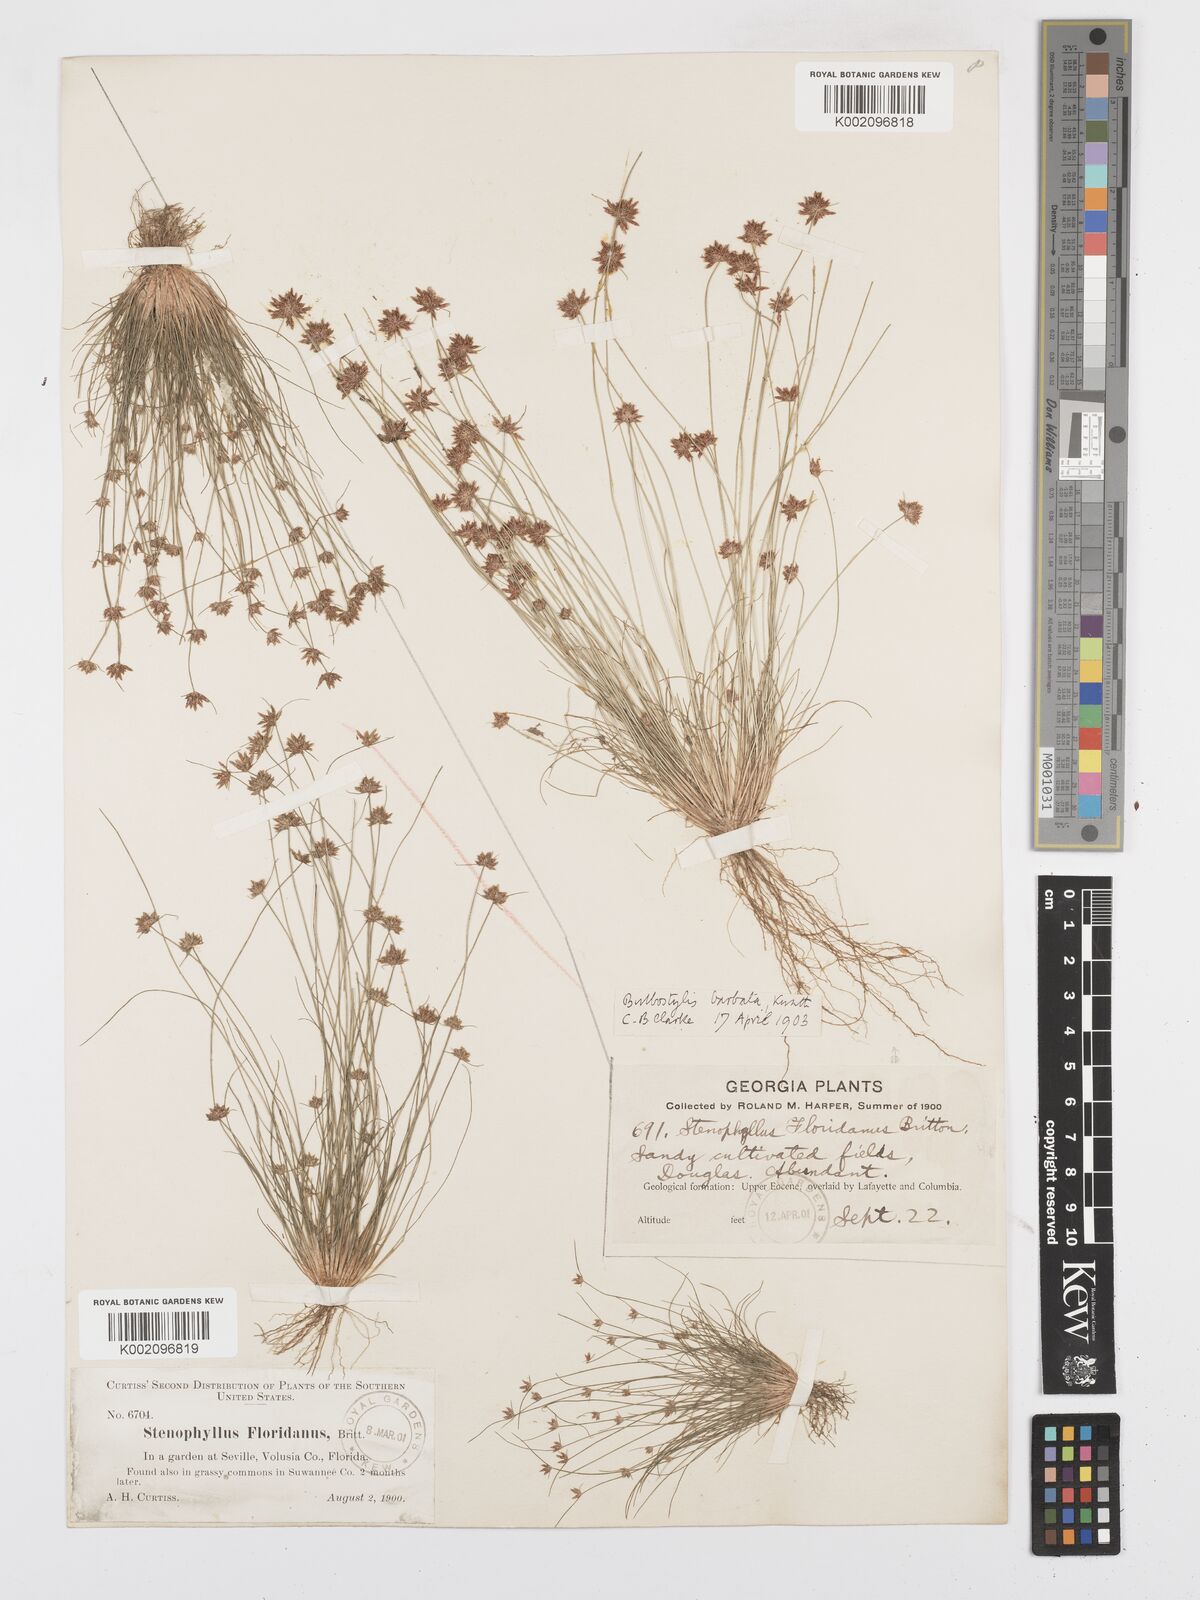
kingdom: Plantae
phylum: Tracheophyta
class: Liliopsida
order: Poales
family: Cyperaceae
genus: Bulbostylis
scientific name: Bulbostylis barbata
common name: Watergrass
